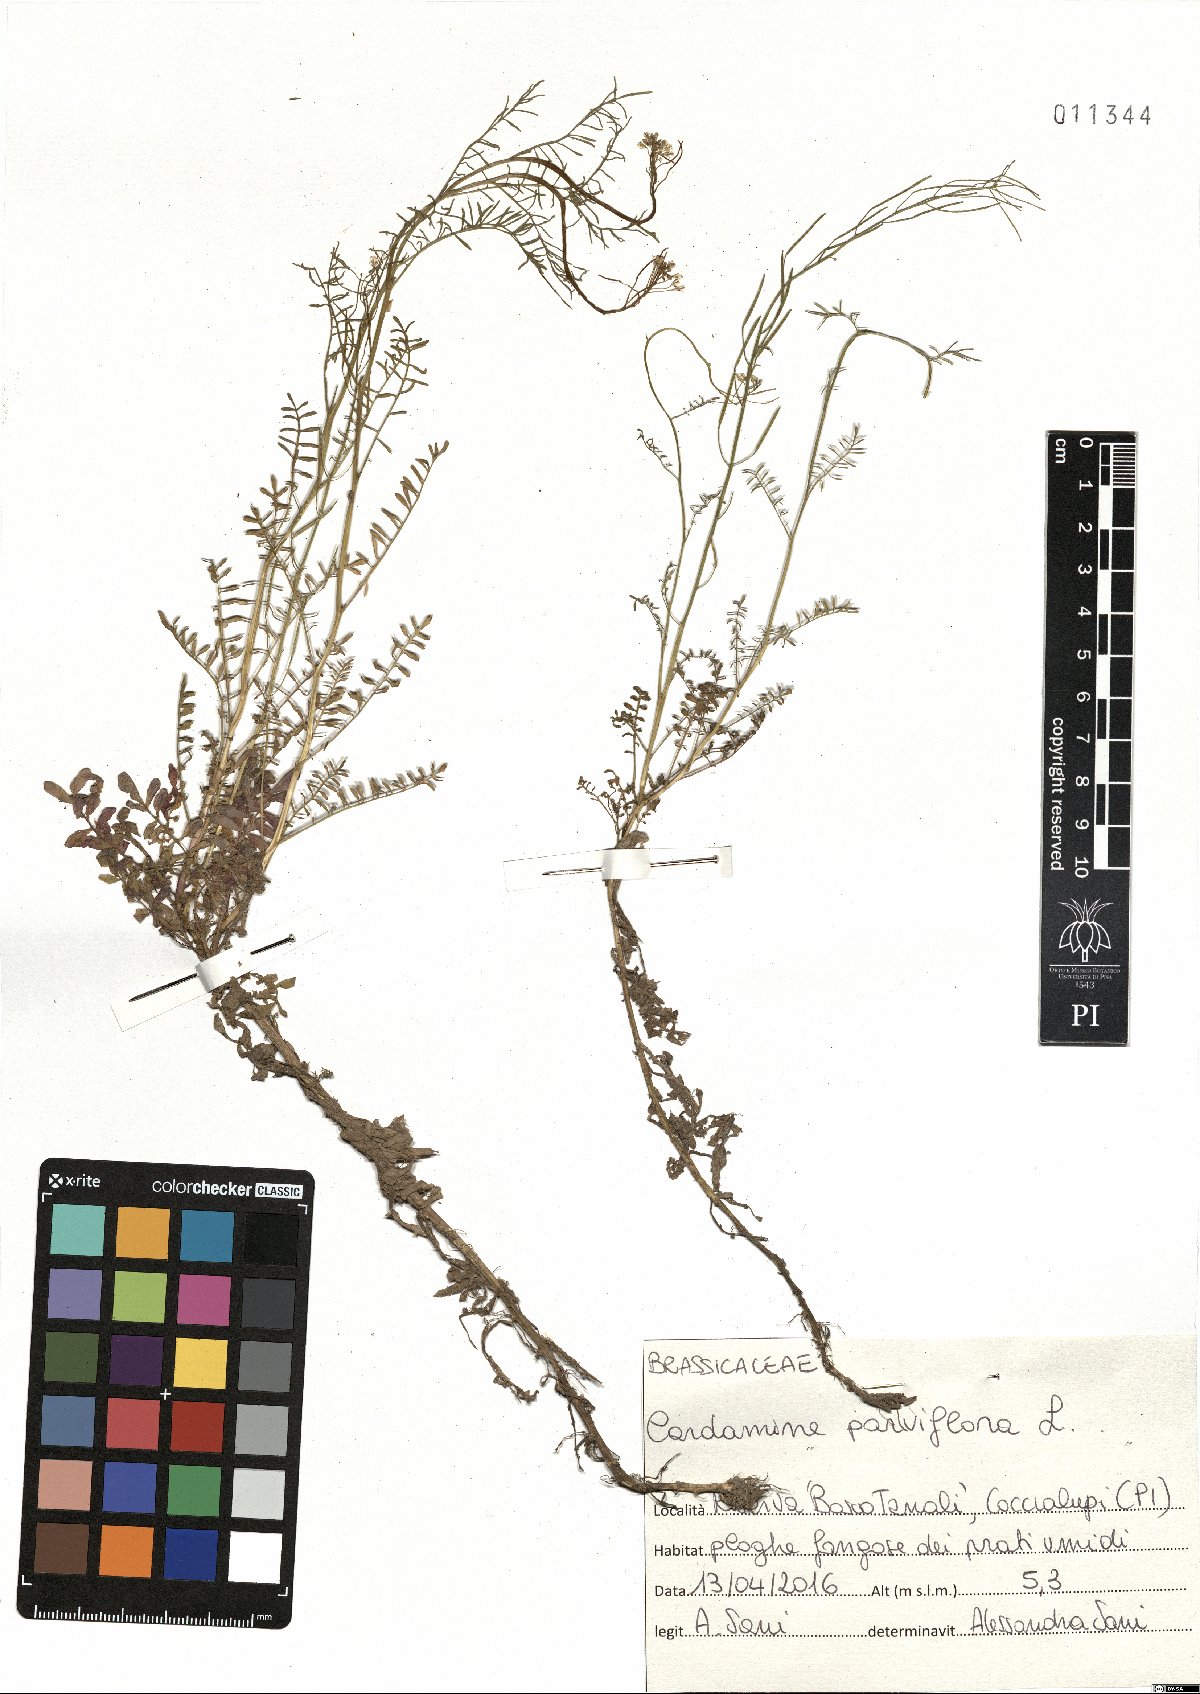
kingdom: Plantae
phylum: Tracheophyta
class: Magnoliopsida
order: Brassicales
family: Brassicaceae
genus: Cardamine
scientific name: Cardamine parviflora
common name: Sand bittercress
